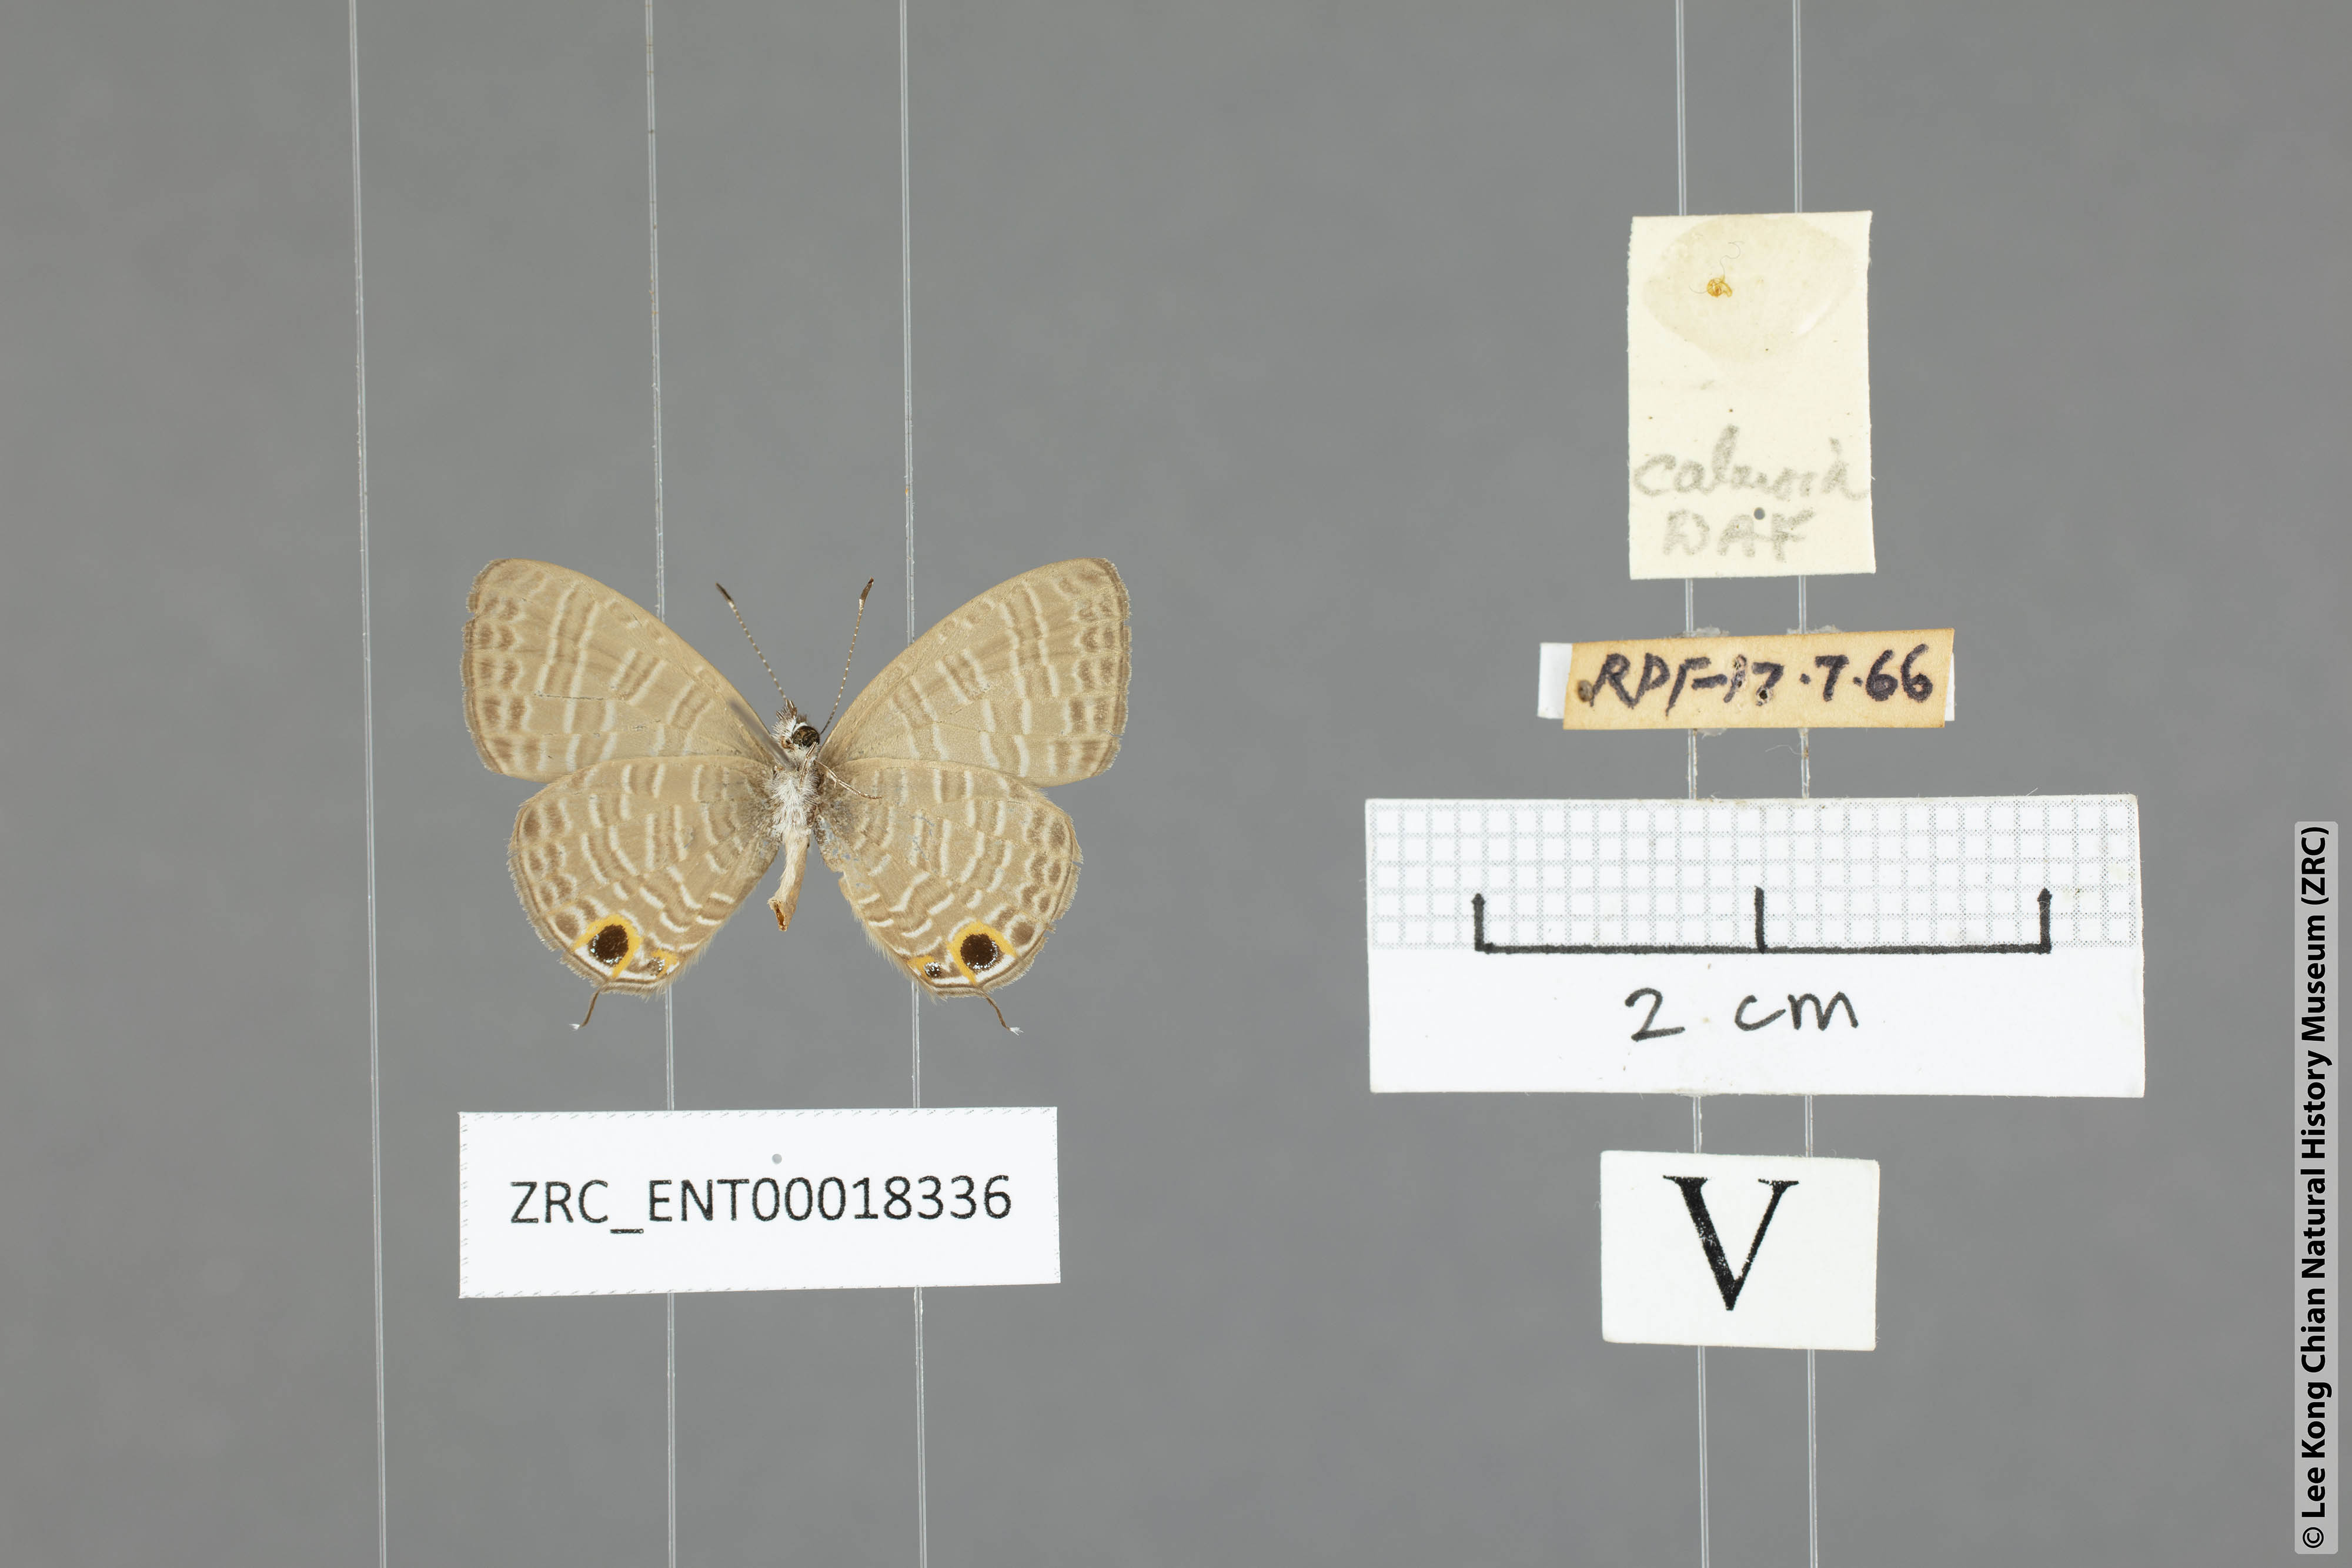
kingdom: Animalia
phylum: Arthropoda
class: Insecta
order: Lepidoptera
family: Lycaenidae
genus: Nacaduba
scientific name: Nacaduba calauria
